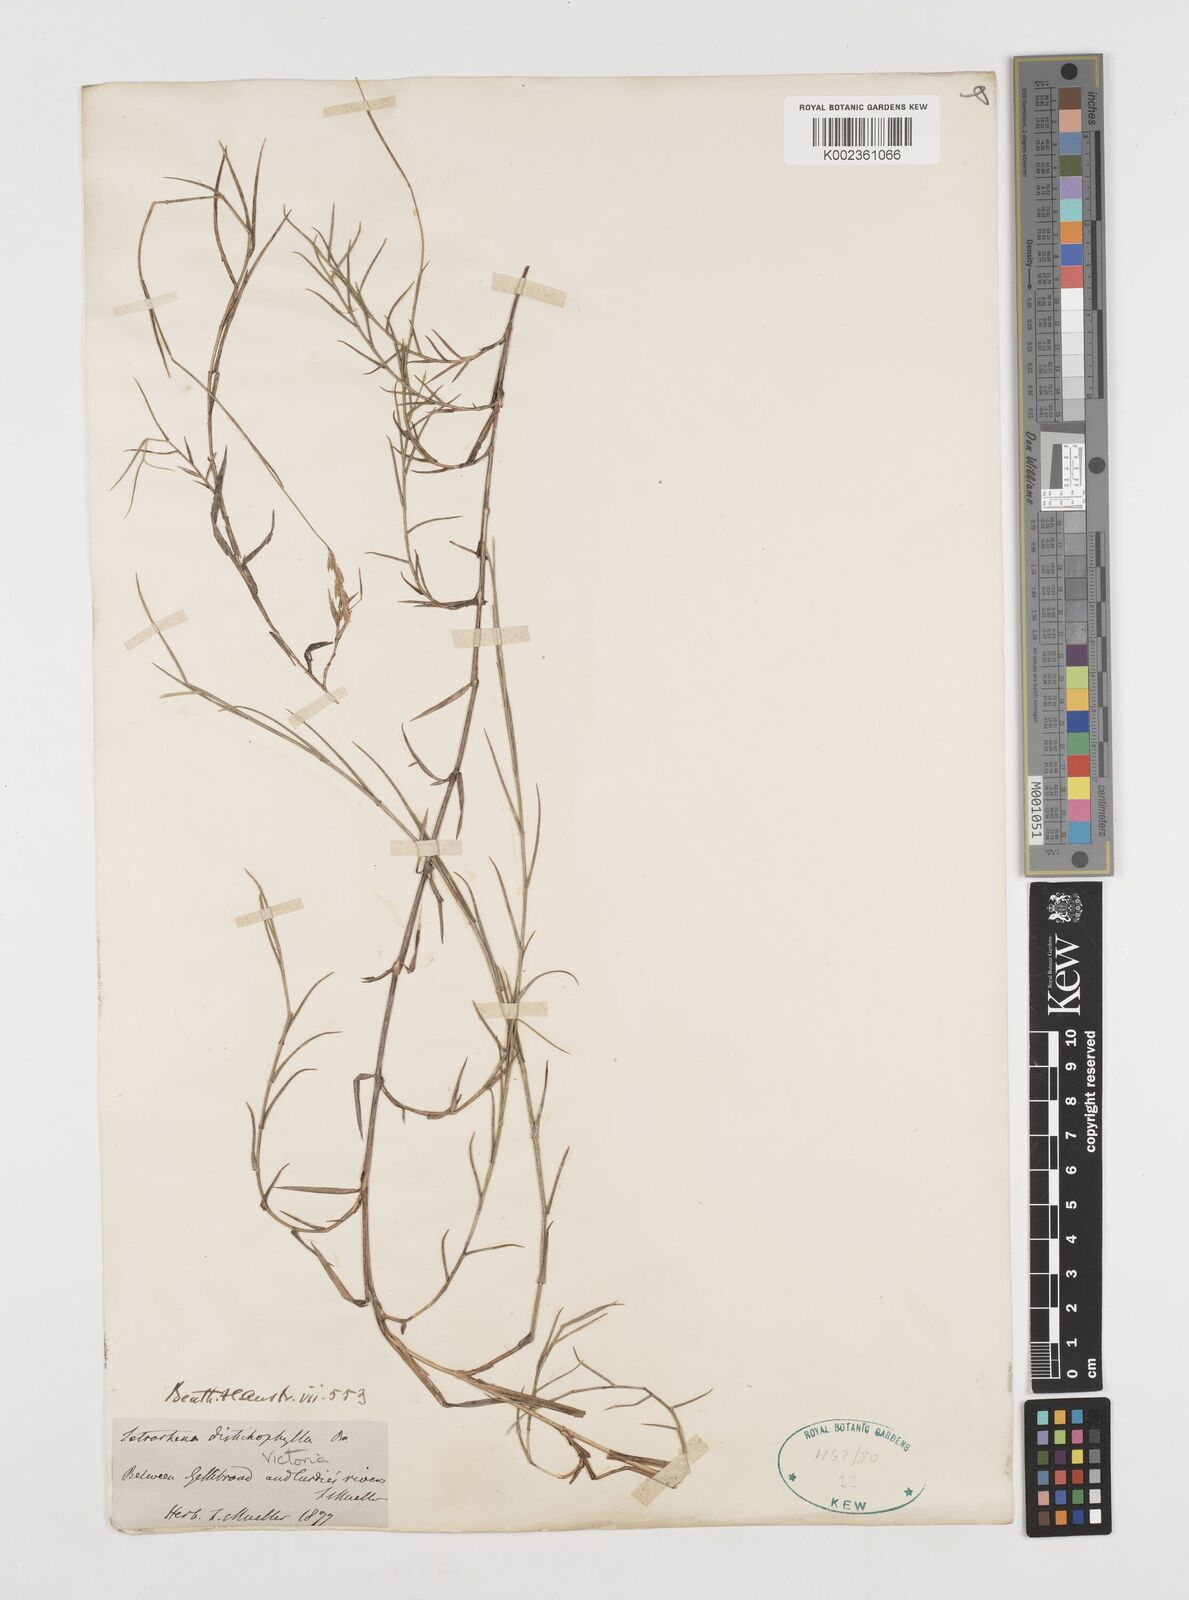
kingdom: Plantae
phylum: Tracheophyta
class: Liliopsida
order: Poales
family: Poaceae
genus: Ehrharta
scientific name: Ehrharta
